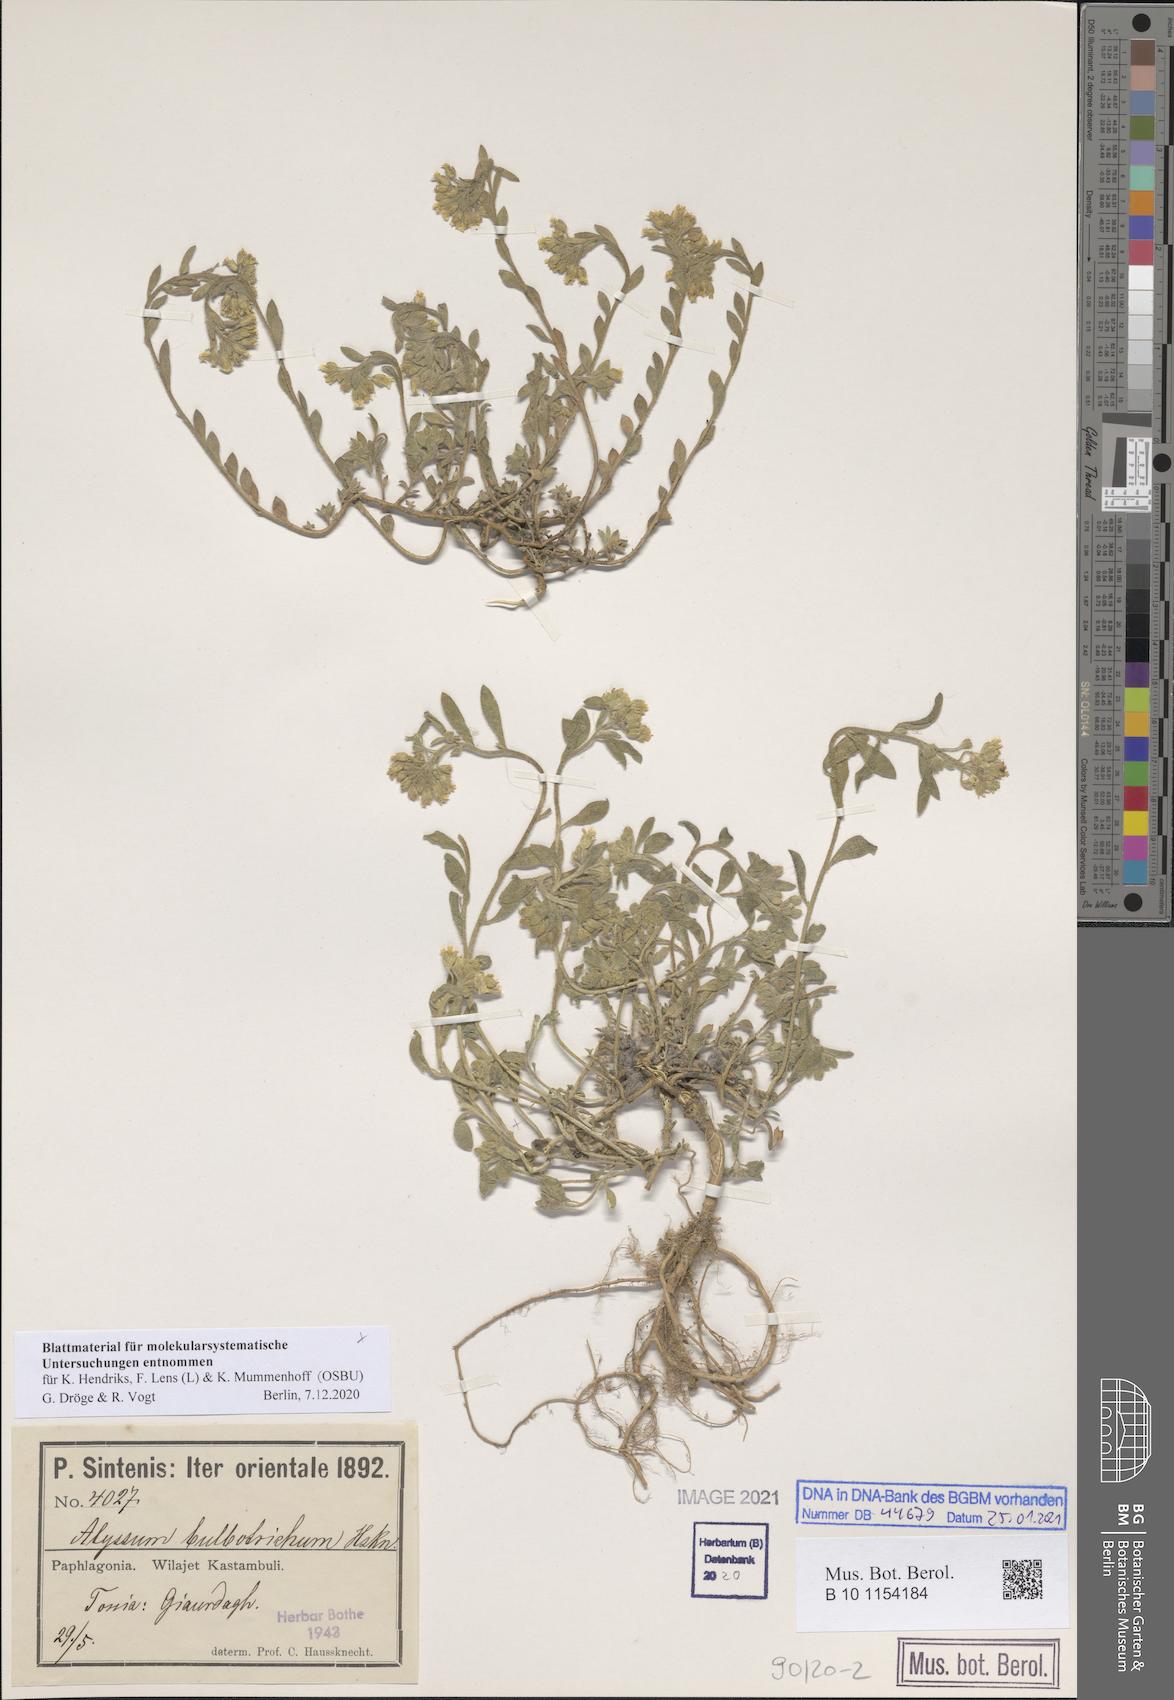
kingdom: Plantae
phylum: Tracheophyta
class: Magnoliopsida
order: Brassicales
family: Brassicaceae
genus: Alyssum
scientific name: Alyssum bulbotrichum
